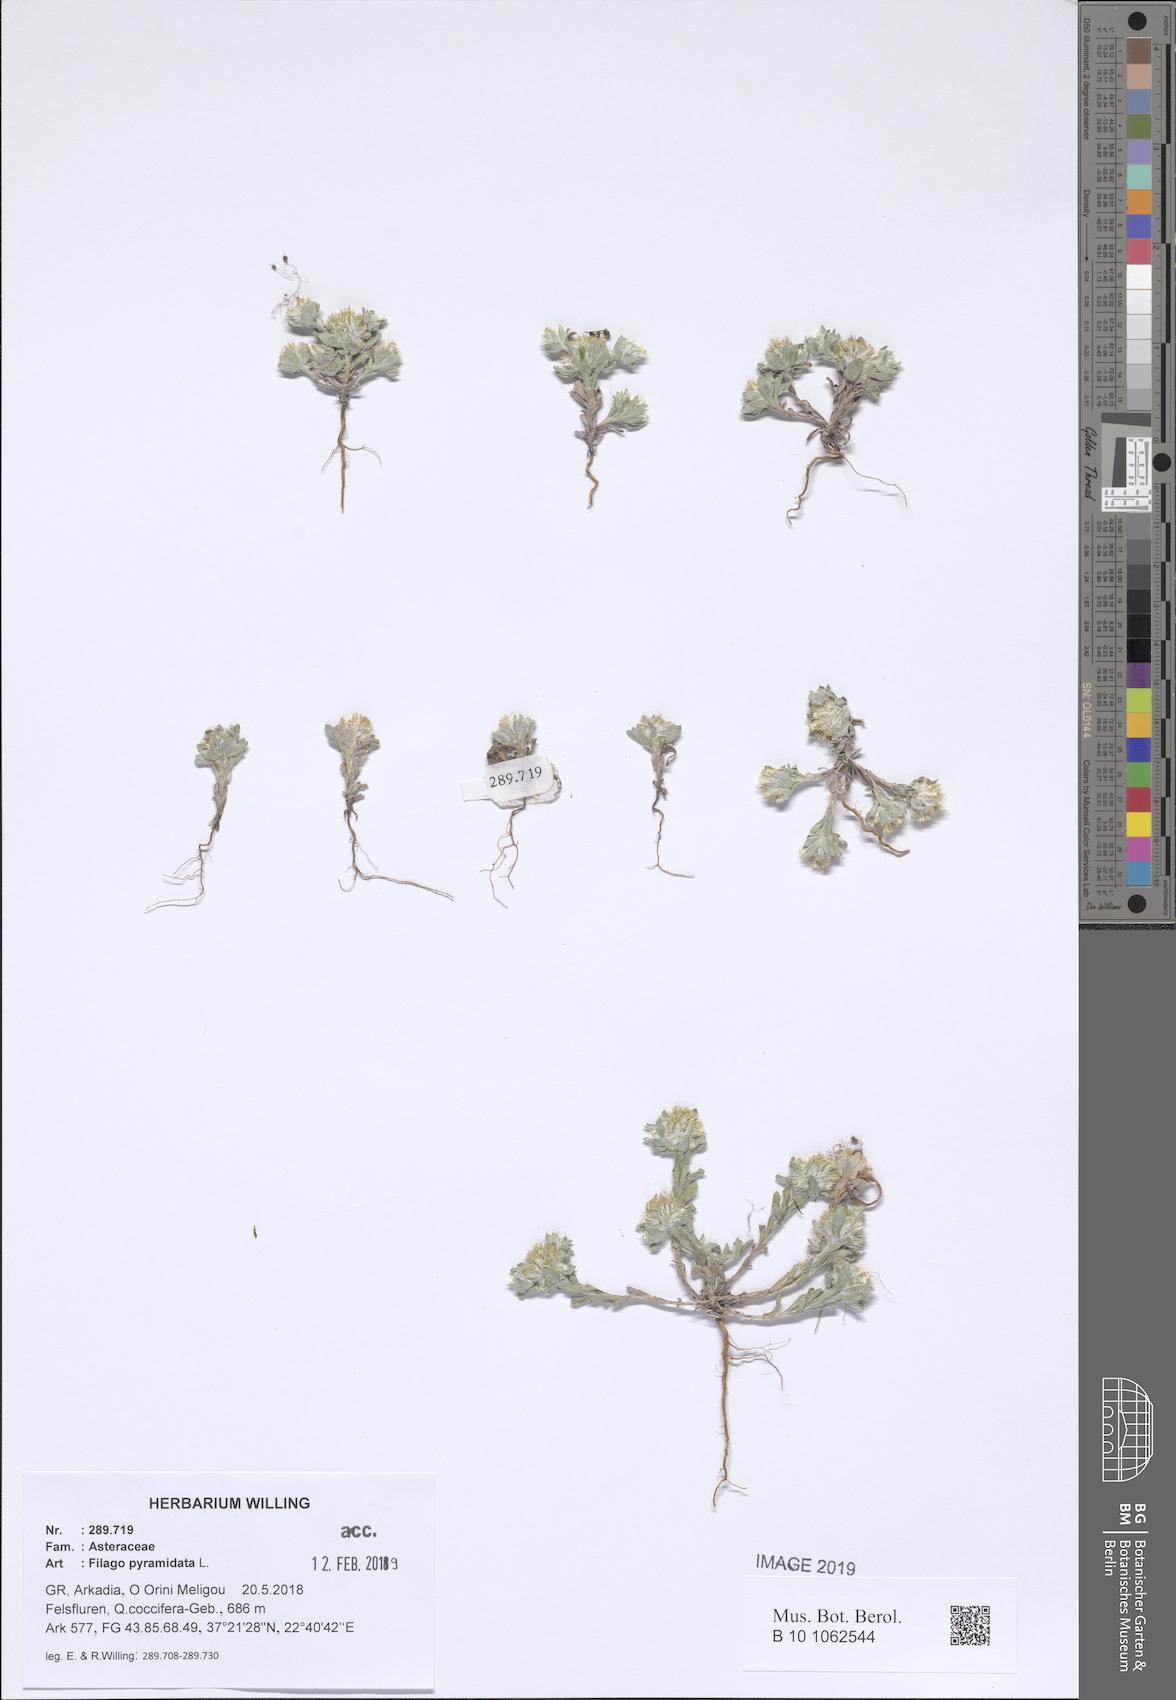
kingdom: Plantae
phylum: Tracheophyta
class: Magnoliopsida
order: Asterales
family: Asteraceae
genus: Filago
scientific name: Filago pyramidata
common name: Broad-leaved cudweed
